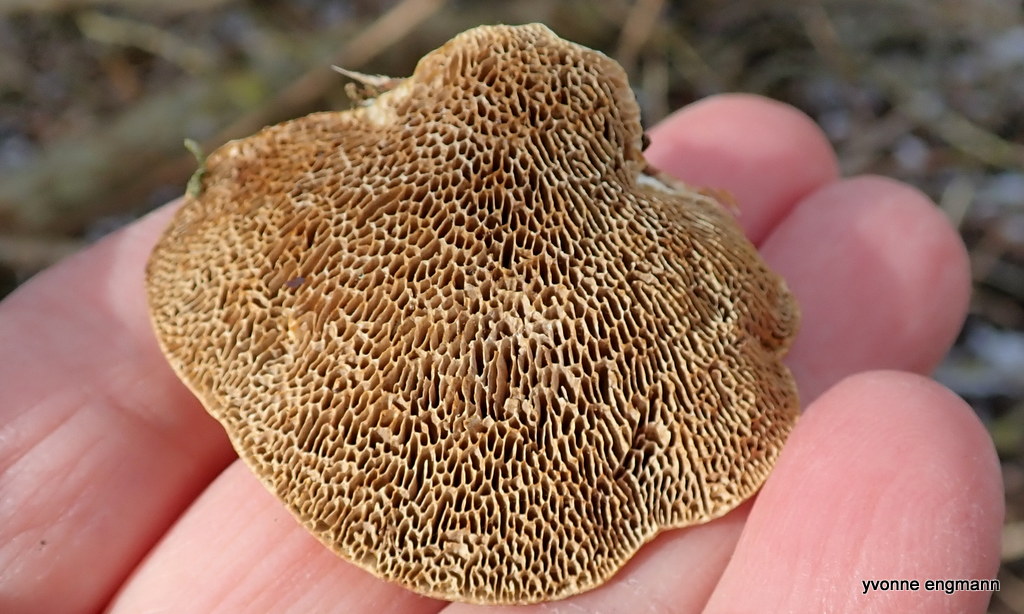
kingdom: Fungi
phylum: Basidiomycota
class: Agaricomycetes
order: Polyporales
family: Polyporaceae
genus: Daedaleopsis
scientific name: Daedaleopsis confragosa
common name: rødmende læderporesvamp
